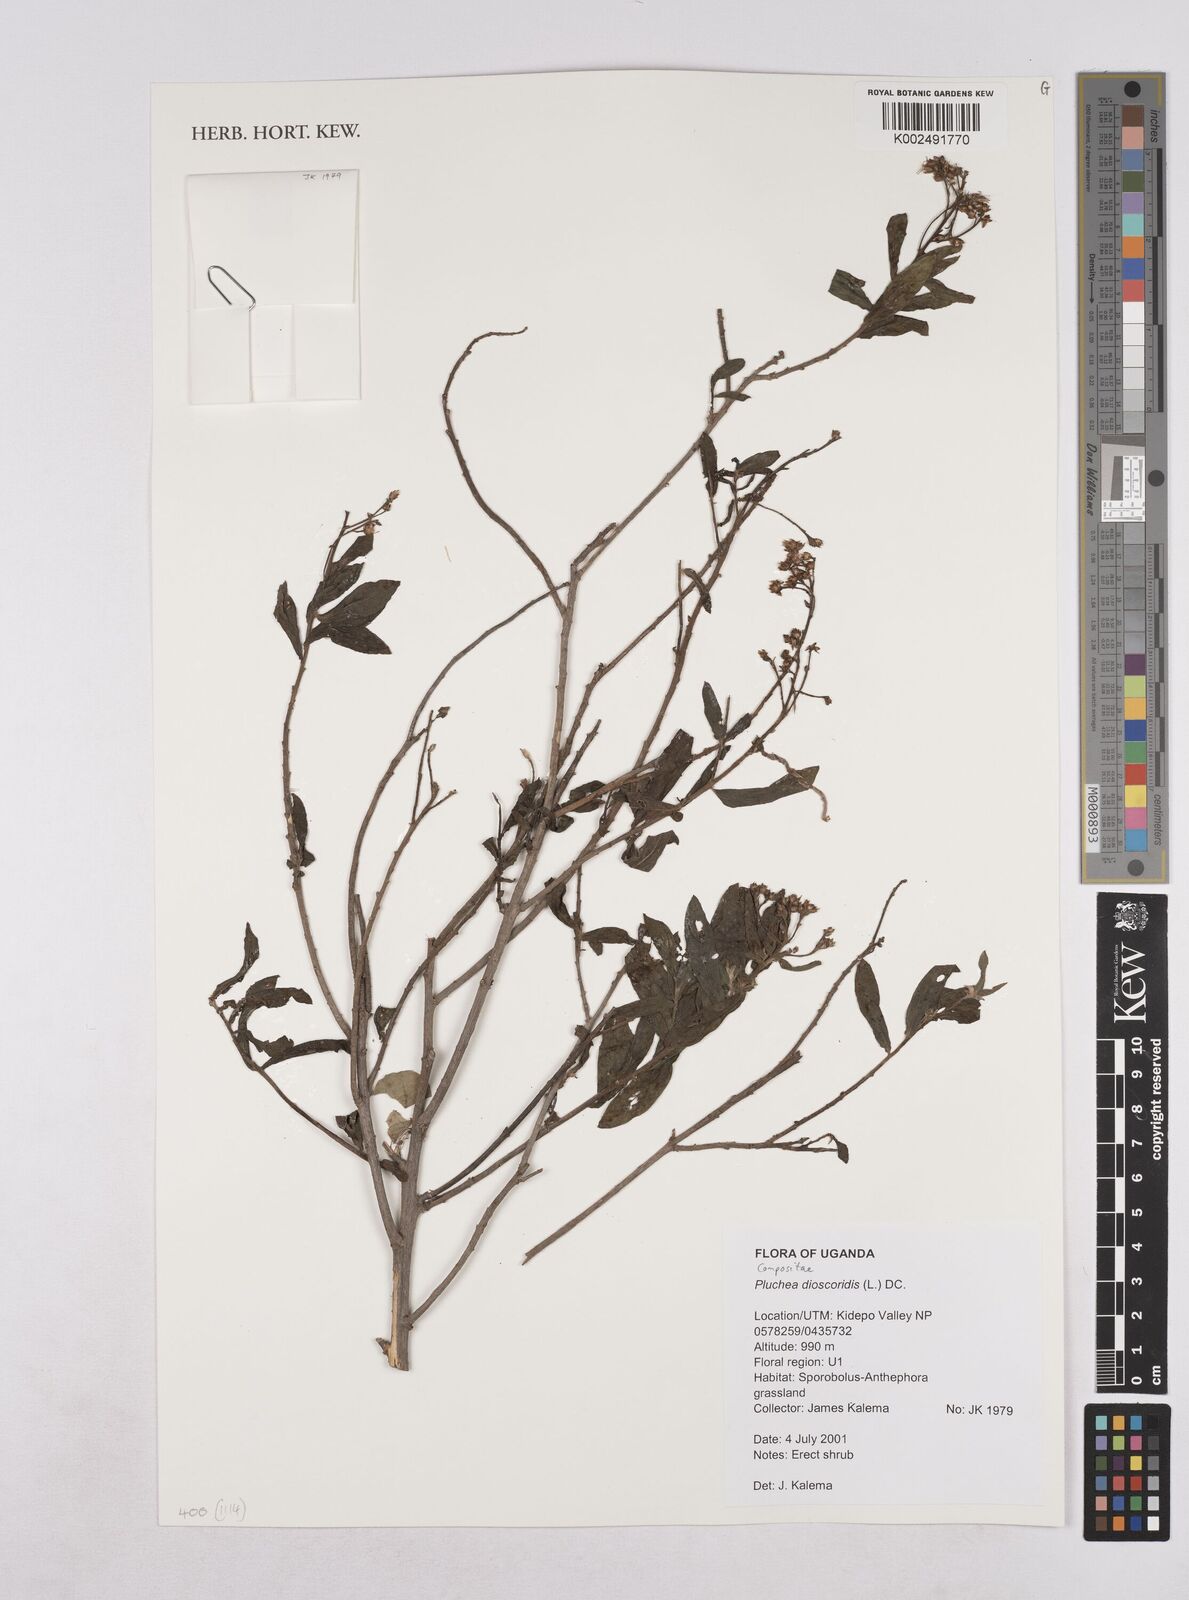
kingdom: Plantae
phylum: Tracheophyta
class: Magnoliopsida
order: Asterales
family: Asteraceae
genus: Pluchea
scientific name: Pluchea dioscoridis
